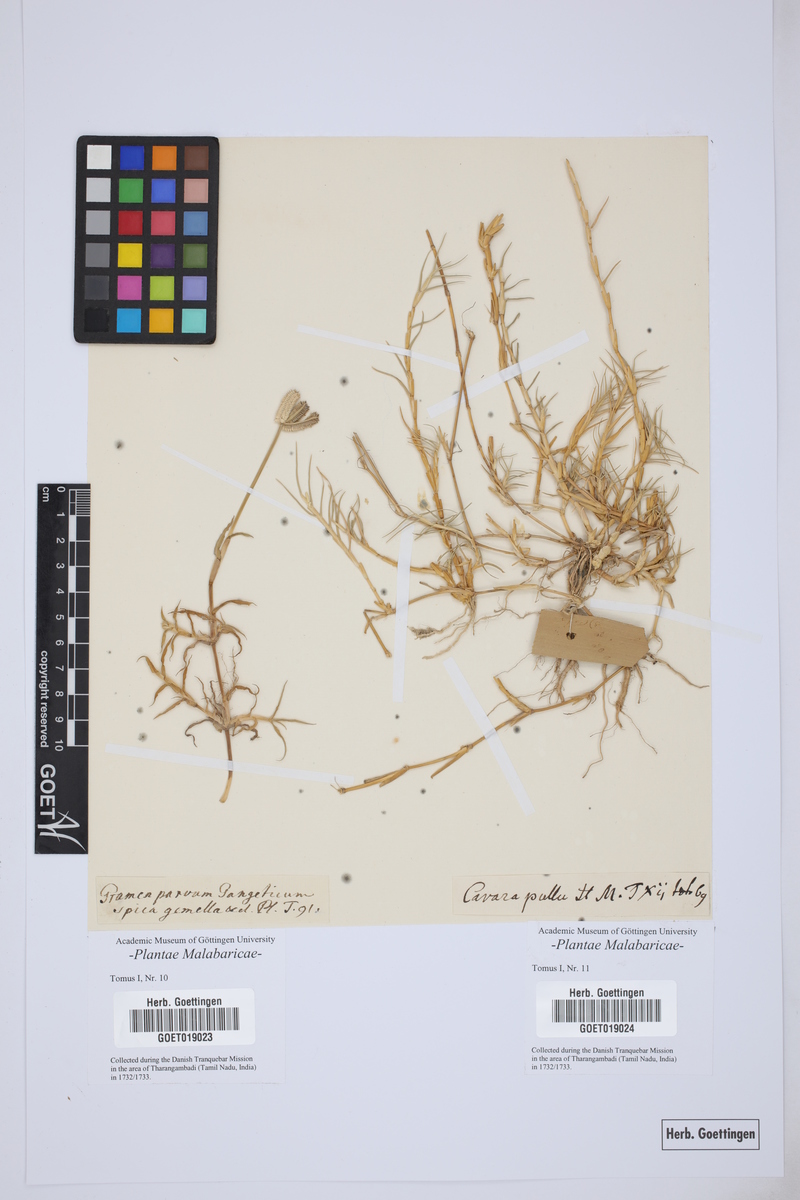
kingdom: Plantae
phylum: Tracheophyta
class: Liliopsida
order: Poales
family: Poaceae
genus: Dactyloctenium
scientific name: Dactyloctenium aegyptium
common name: Egyptian grass
